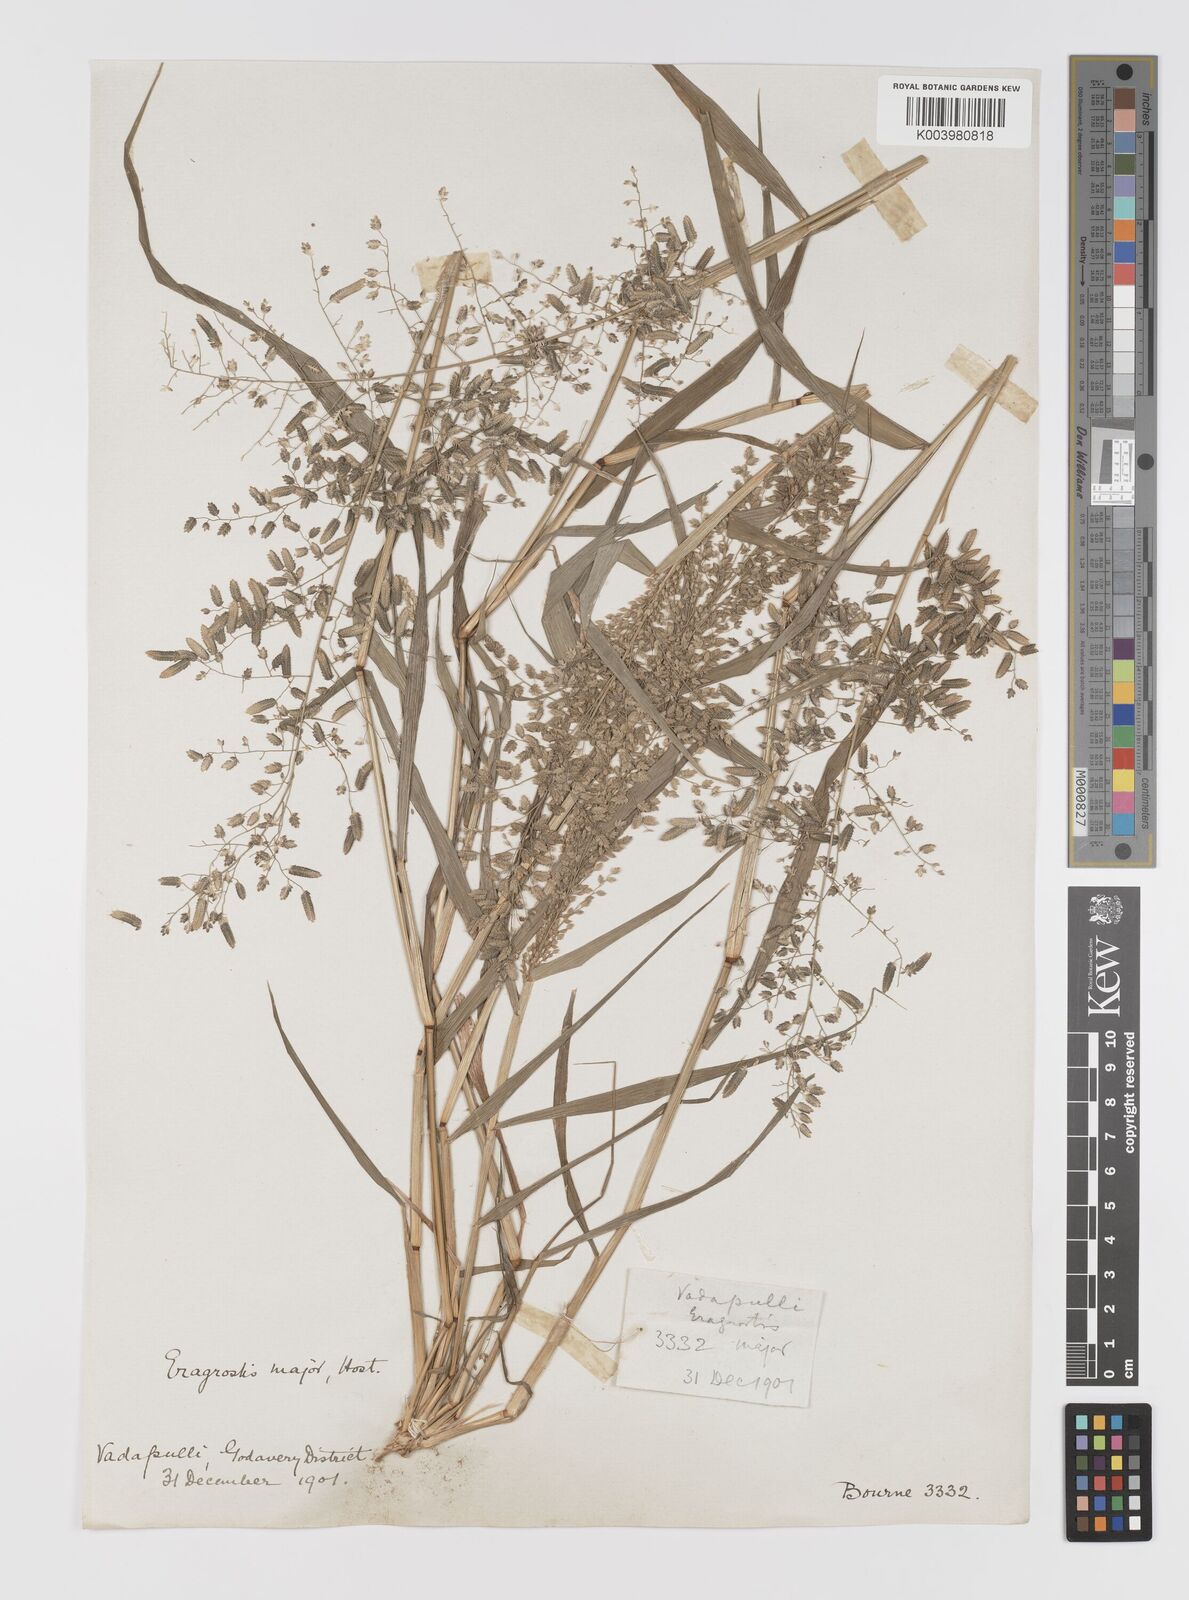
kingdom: Plantae
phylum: Tracheophyta
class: Liliopsida
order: Poales
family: Poaceae
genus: Eragrostis
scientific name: Eragrostis cilianensis
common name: Stinkgrass
